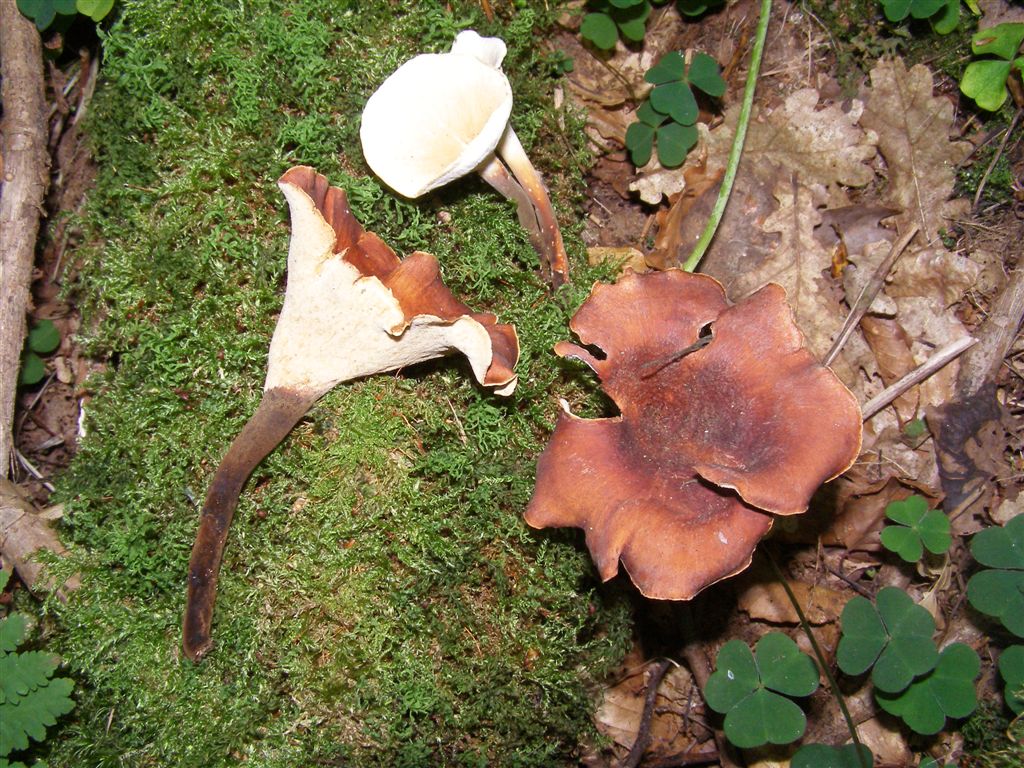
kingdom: Fungi
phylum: Basidiomycota
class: Agaricomycetes
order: Polyporales
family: Polyporaceae
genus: Picipes
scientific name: Picipes tubaeformis
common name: trompet-stilkporesvamp
